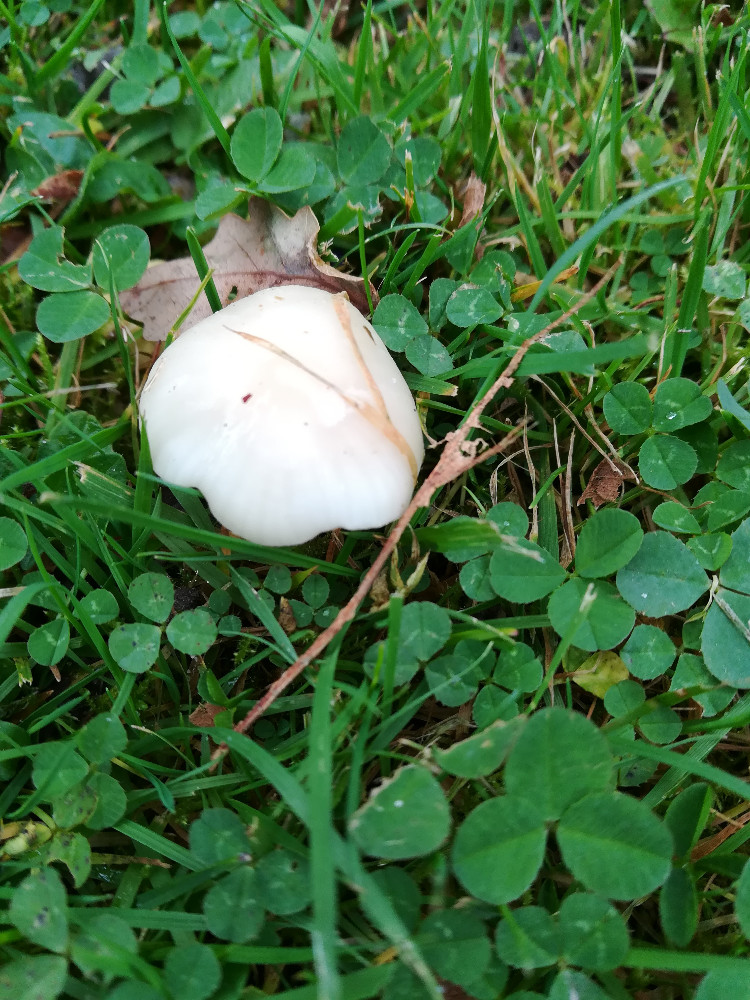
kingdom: Fungi
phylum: Basidiomycota
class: Agaricomycetes
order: Agaricales
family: Hygrophoraceae
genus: Cuphophyllus
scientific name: Cuphophyllus virgineus
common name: snehvid vokshat
